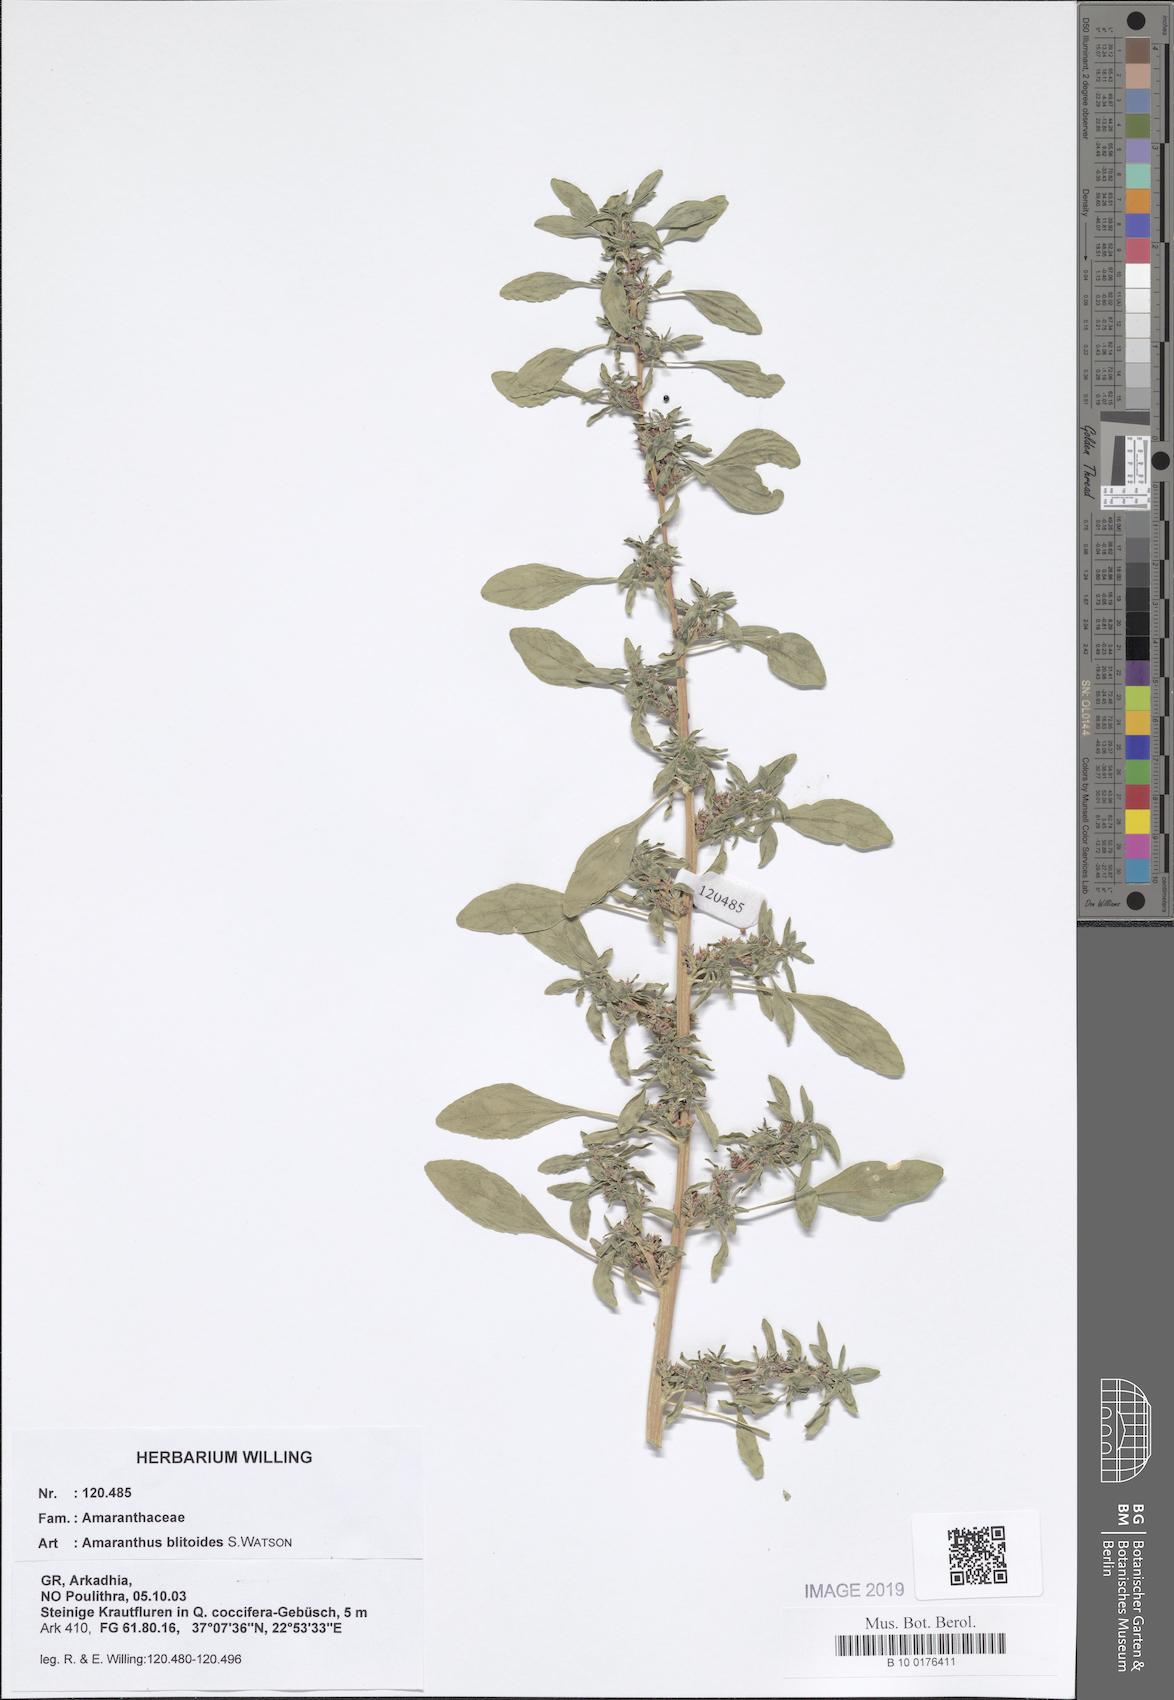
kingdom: Plantae
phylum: Tracheophyta
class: Magnoliopsida
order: Caryophyllales
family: Amaranthaceae
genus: Amaranthus
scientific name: Amaranthus blitoides
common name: Prostrate pigweed
